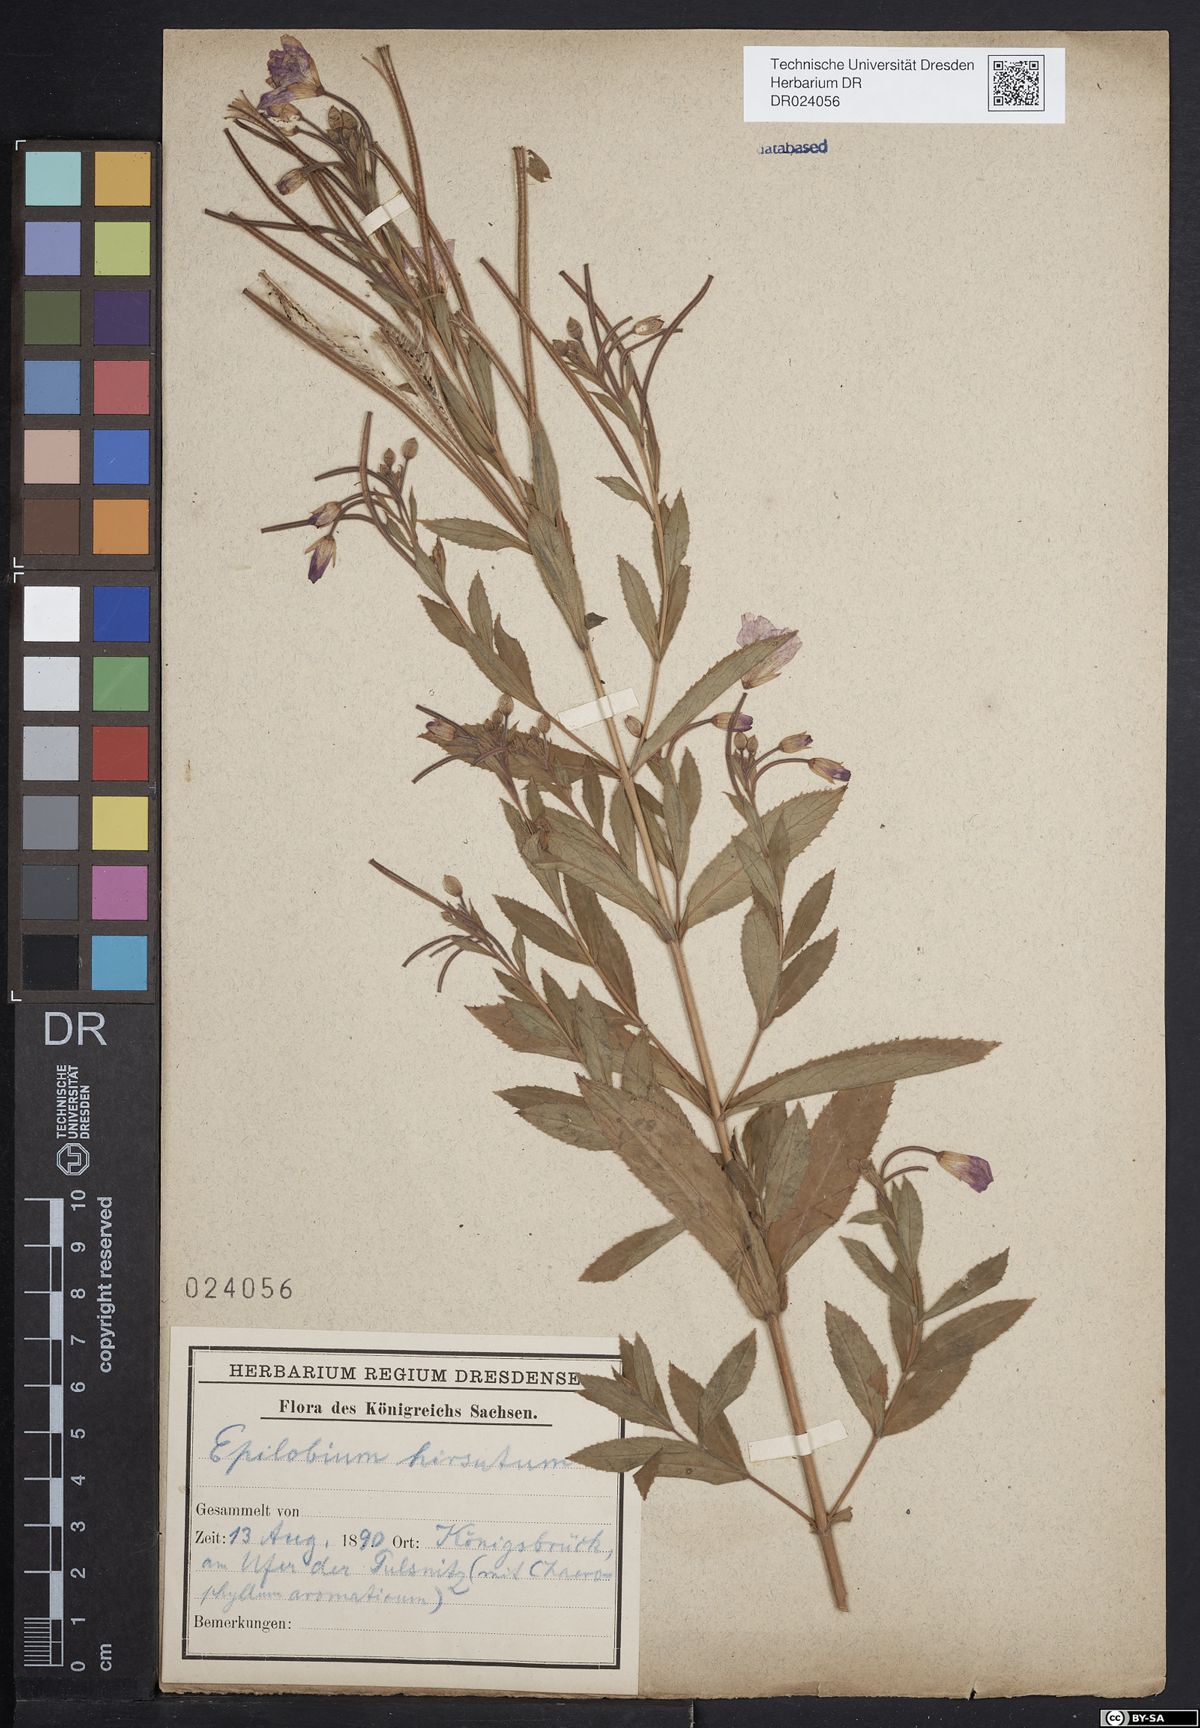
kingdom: Plantae
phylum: Tracheophyta
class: Magnoliopsida
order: Myrtales
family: Onagraceae
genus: Epilobium
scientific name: Epilobium hirsutum
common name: Great willowherb
